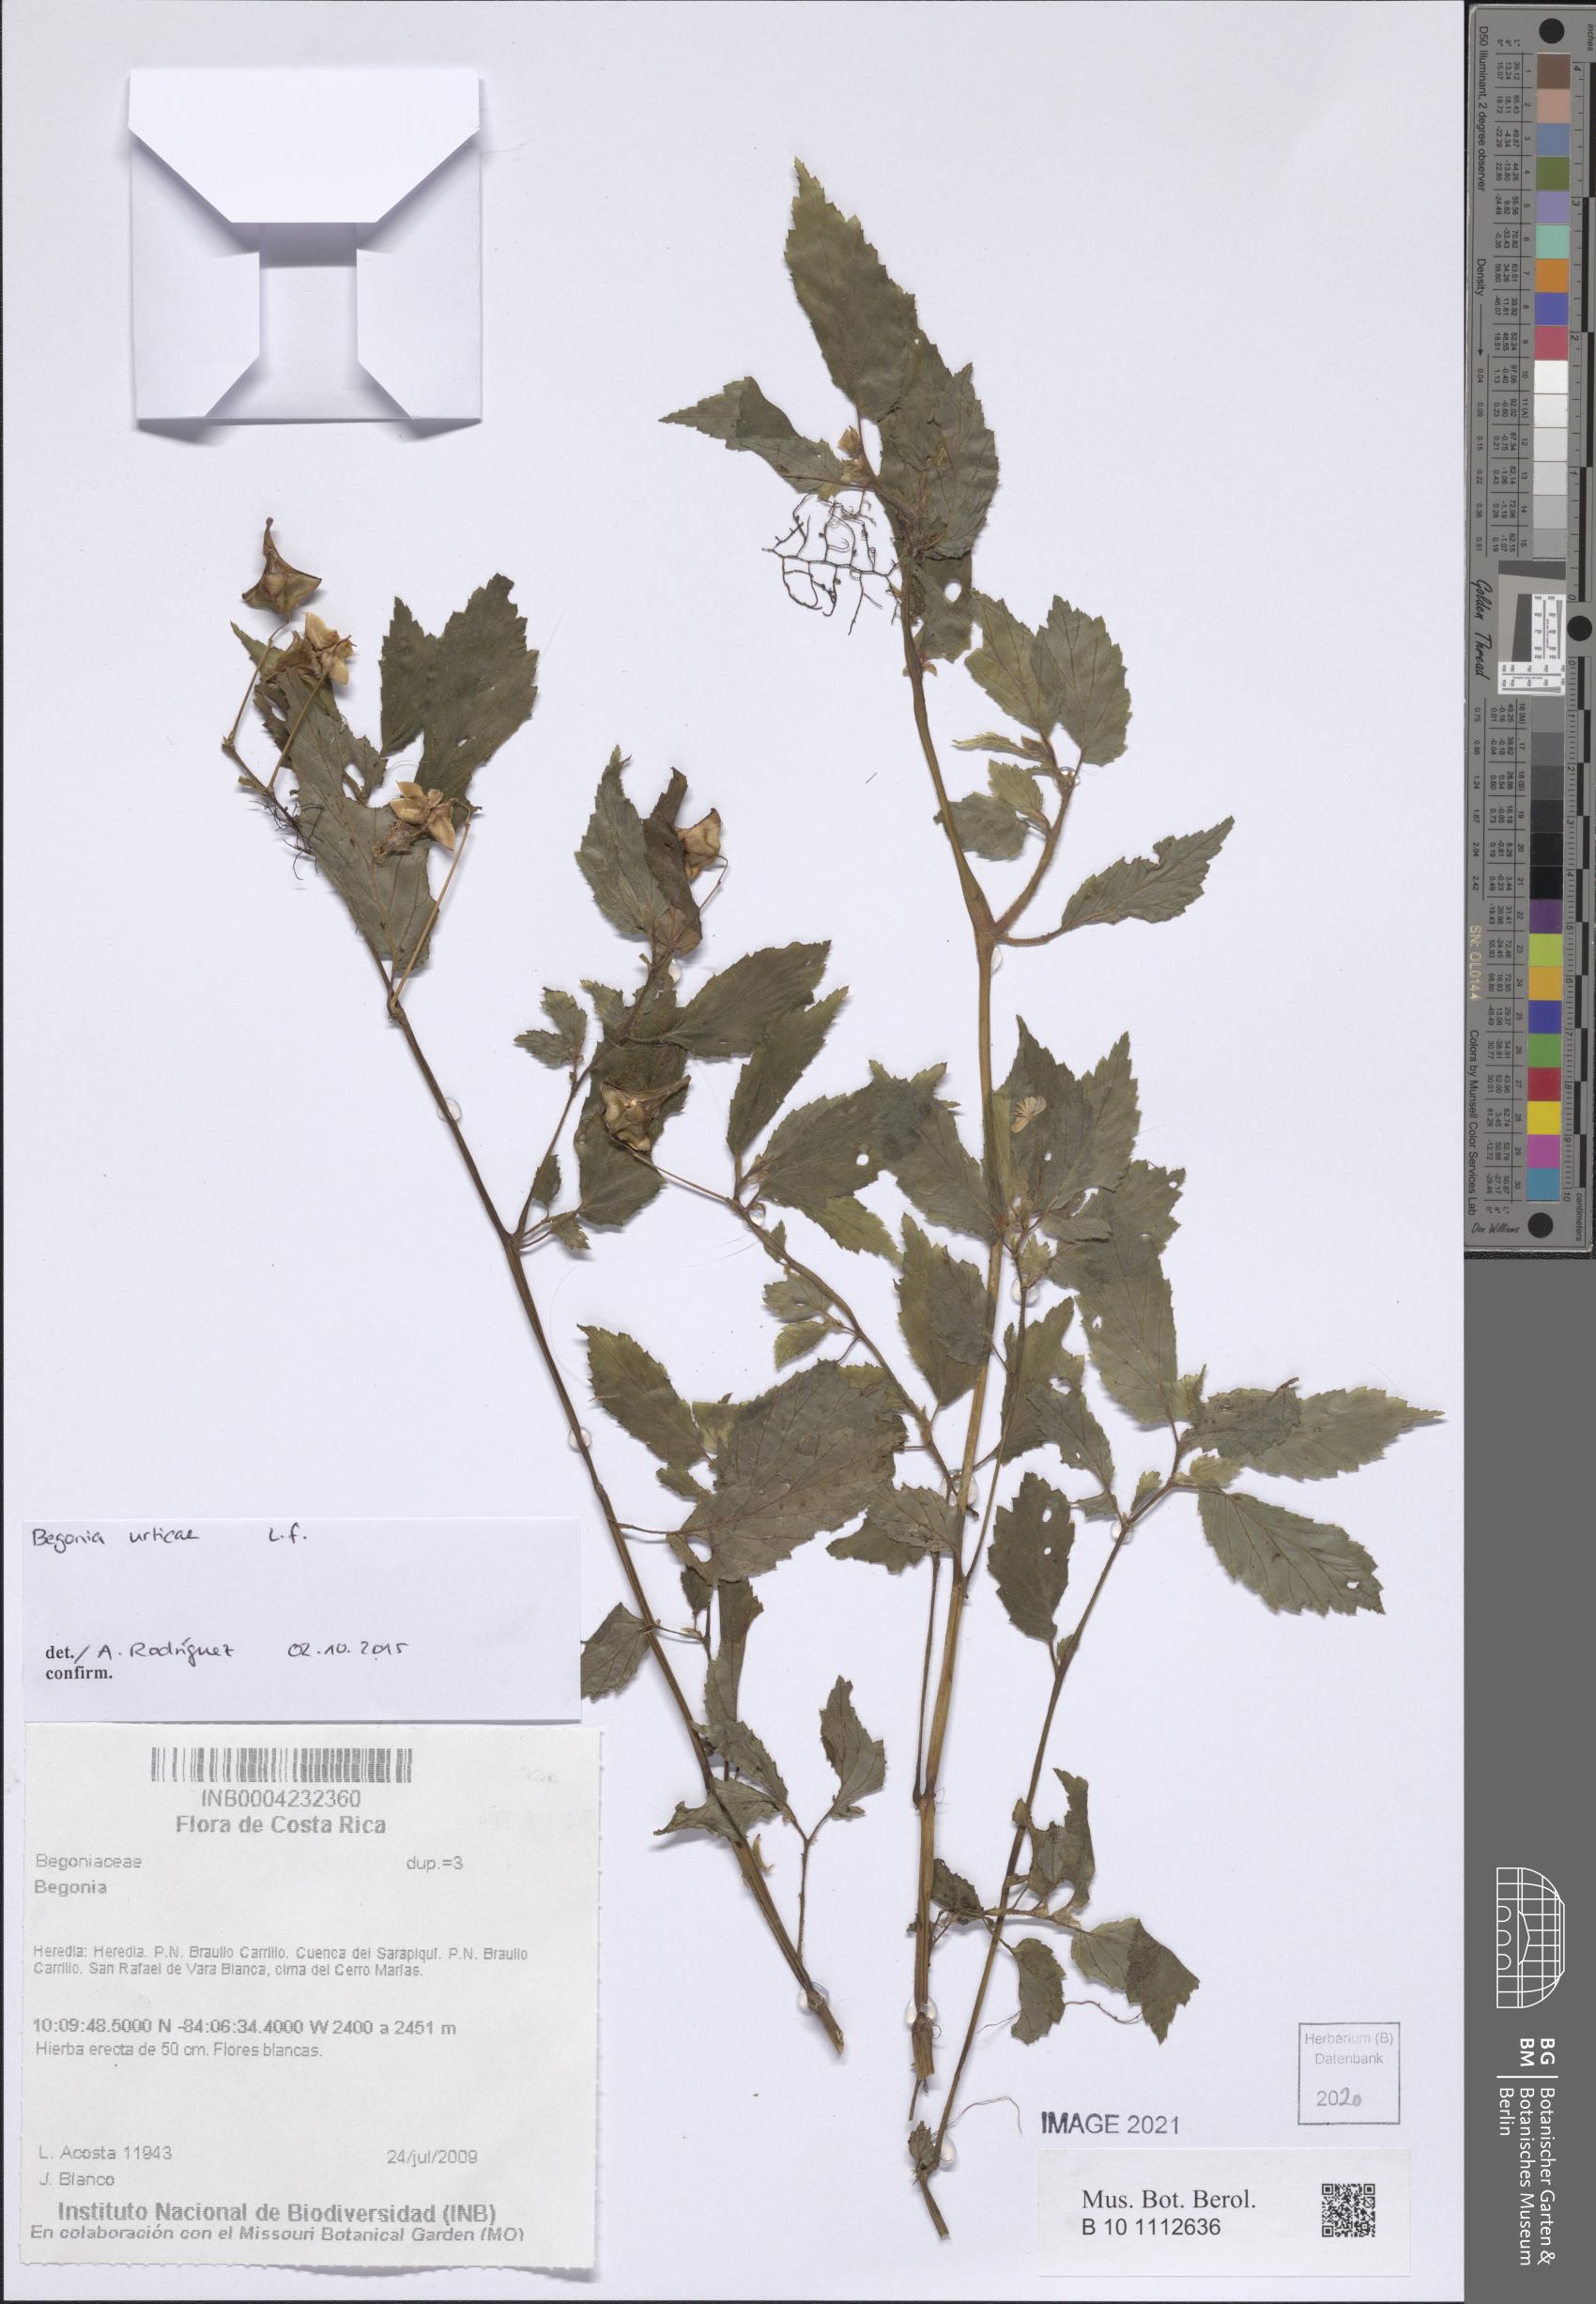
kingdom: Plantae
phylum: Tracheophyta
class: Magnoliopsida
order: Cucurbitales
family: Begoniaceae
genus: Begonia
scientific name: Begonia
